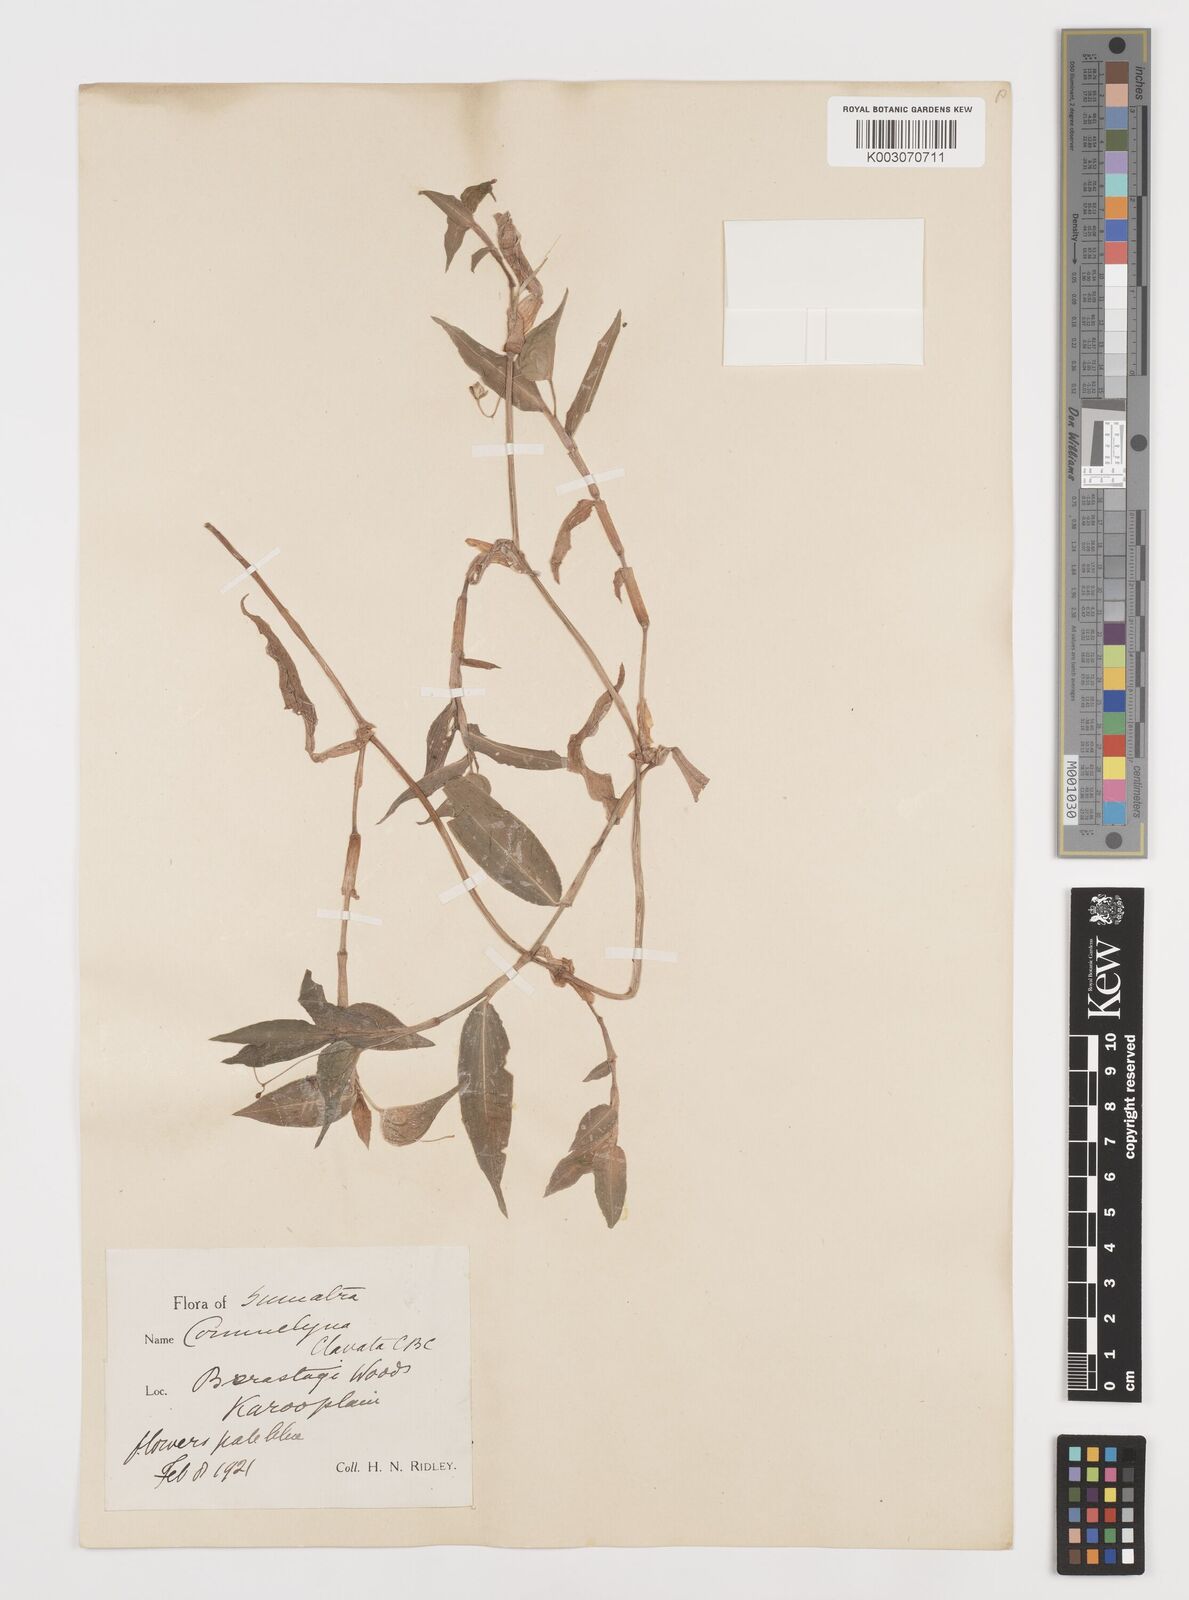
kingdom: Plantae
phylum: Tracheophyta
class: Liliopsida
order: Commelinales
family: Commelinaceae
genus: Commelina
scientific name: Commelina clavata
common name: Willow leaved dayflower
